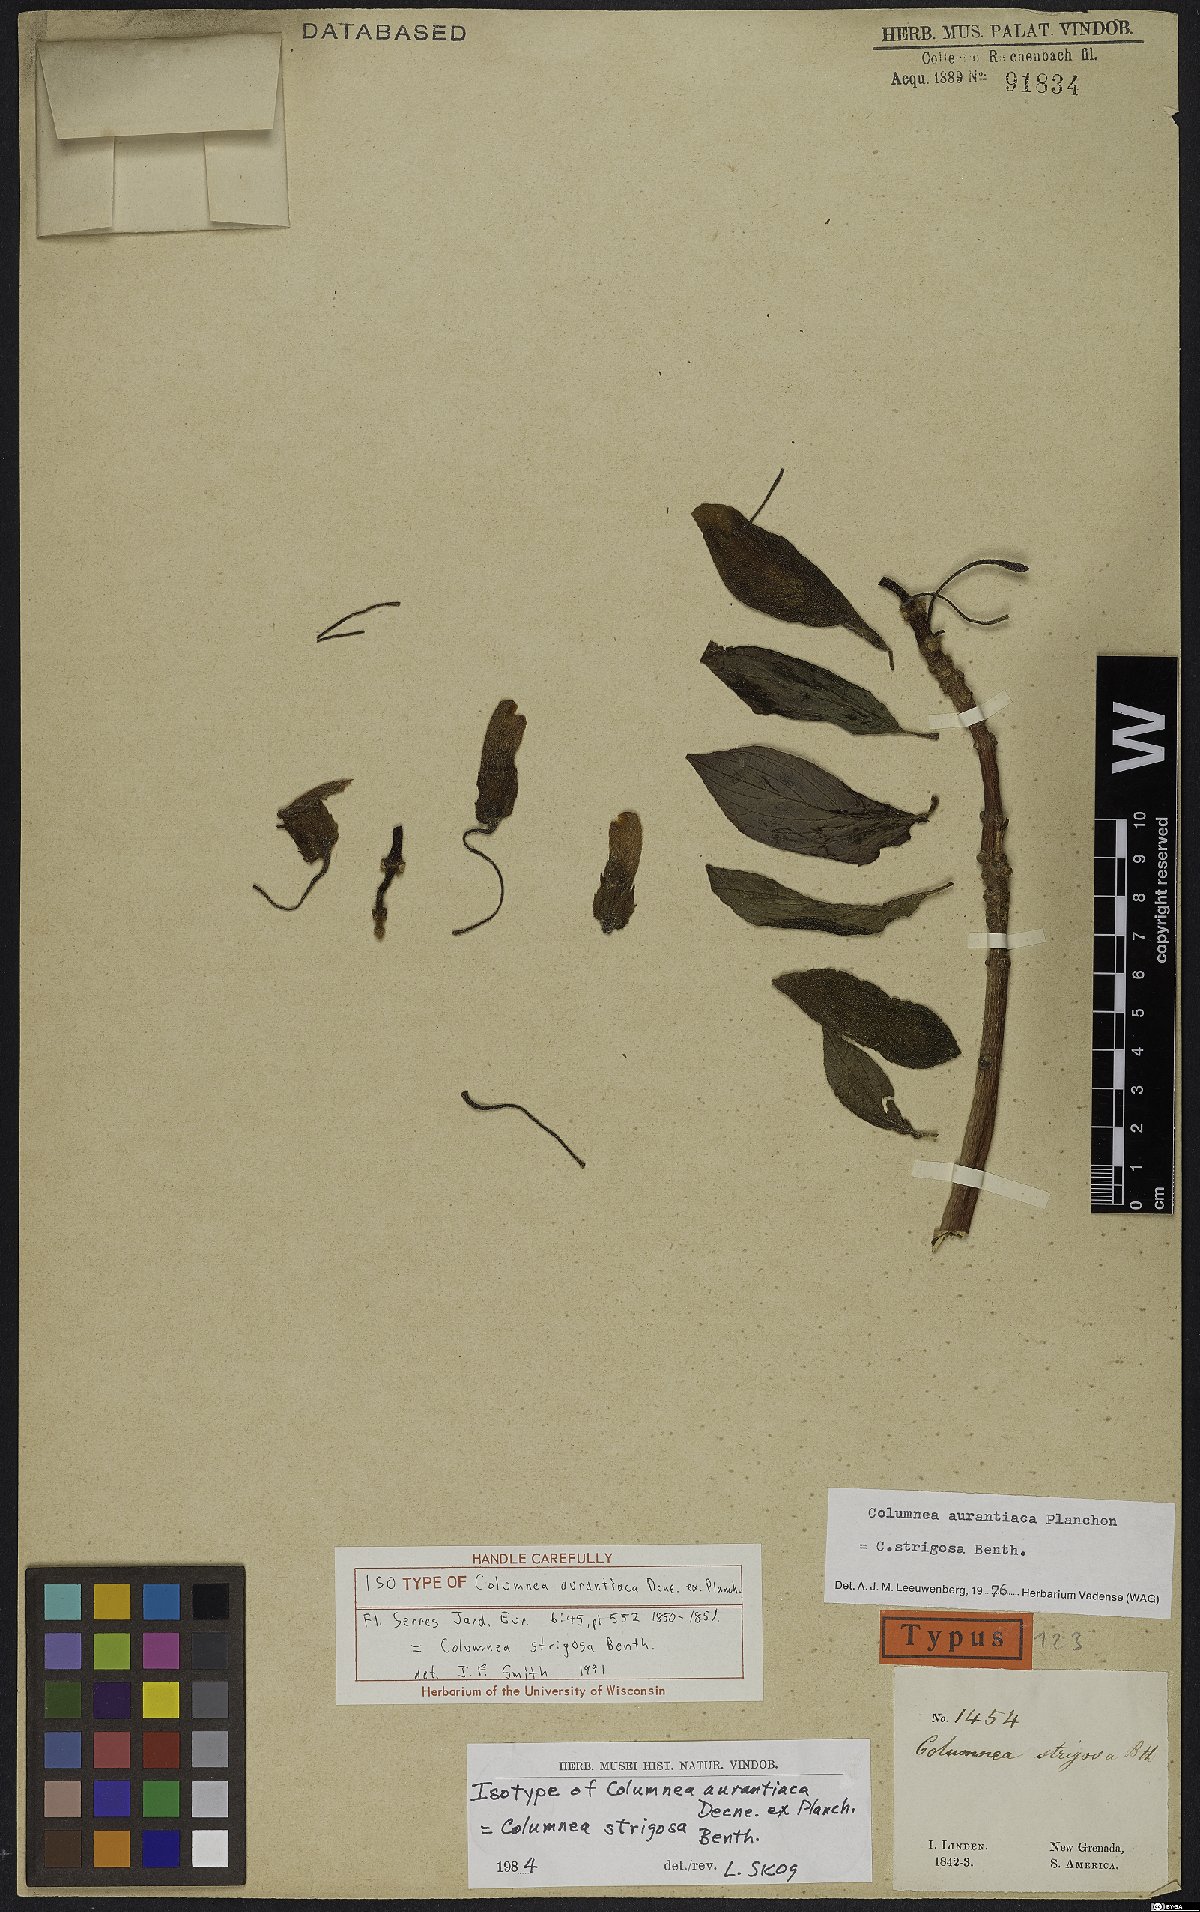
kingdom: Plantae
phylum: Tracheophyta
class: Magnoliopsida
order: Lamiales
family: Gesneriaceae
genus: Columnea
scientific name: Columnea strigosa
